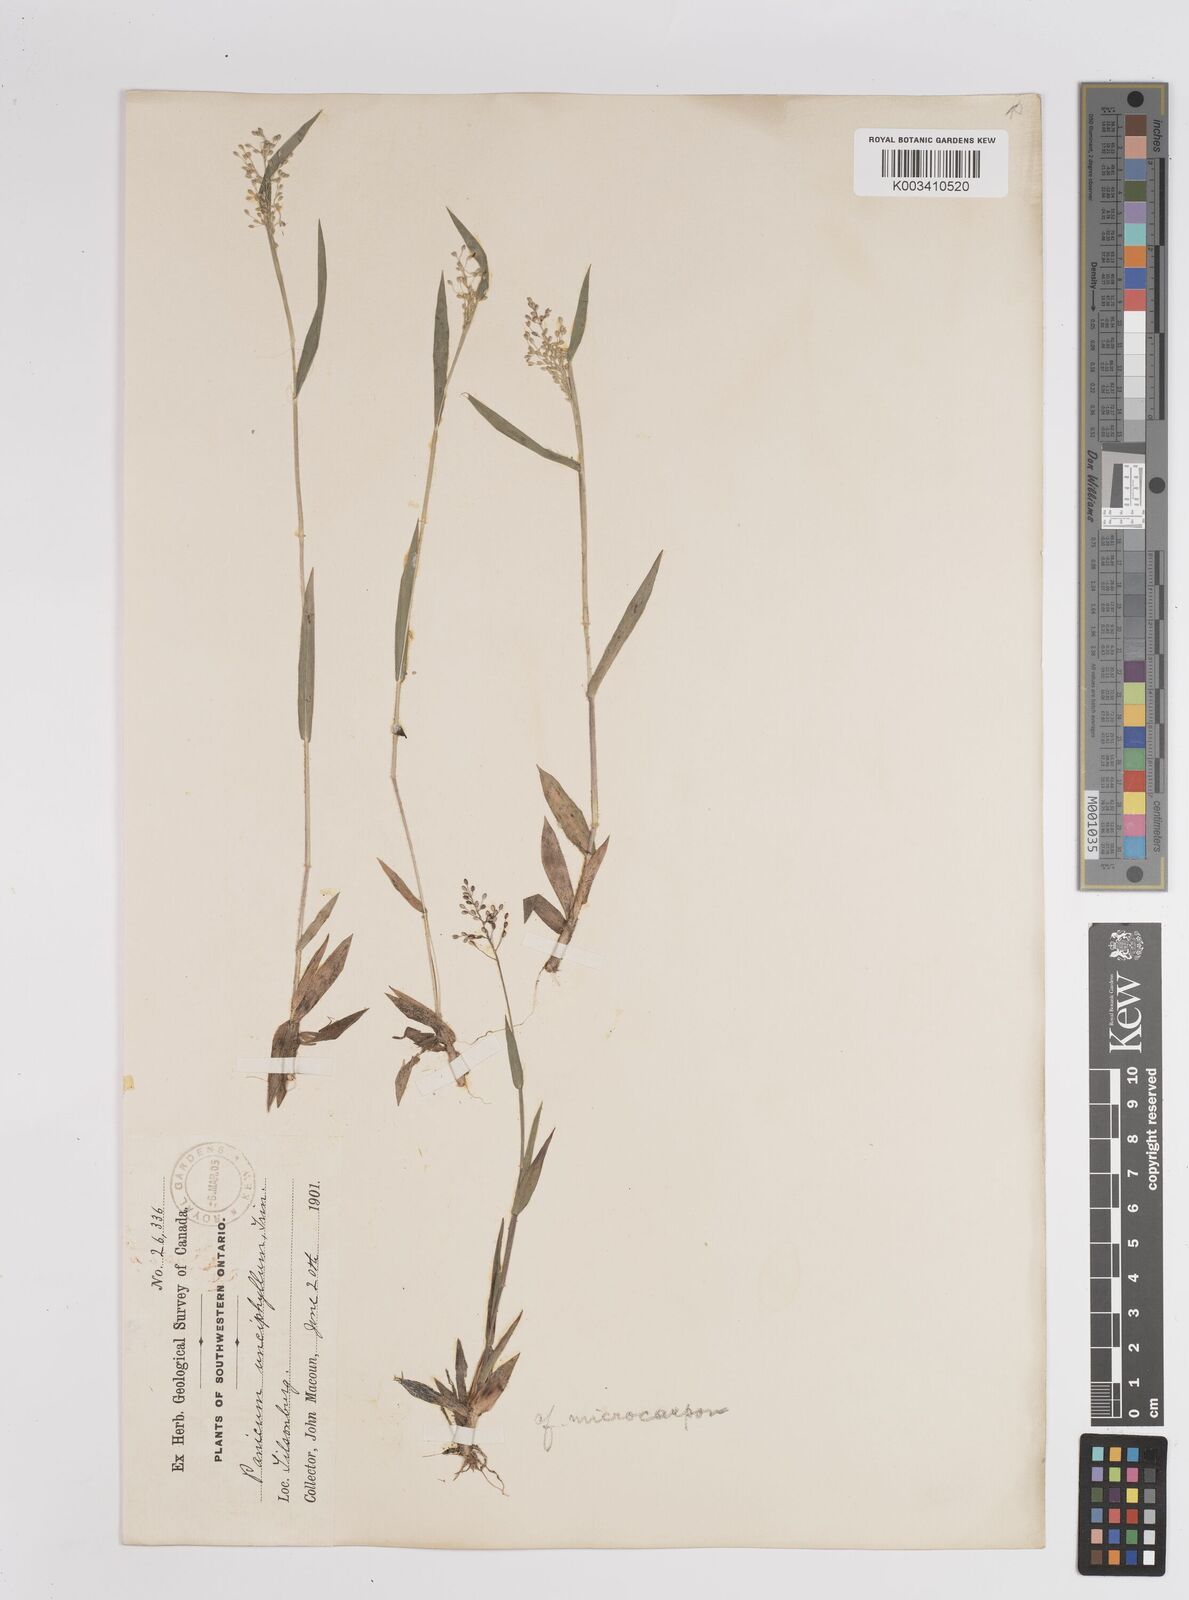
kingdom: Plantae
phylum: Tracheophyta
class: Liliopsida
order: Poales
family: Poaceae
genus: Dichanthelium
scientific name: Dichanthelium polyanthes
